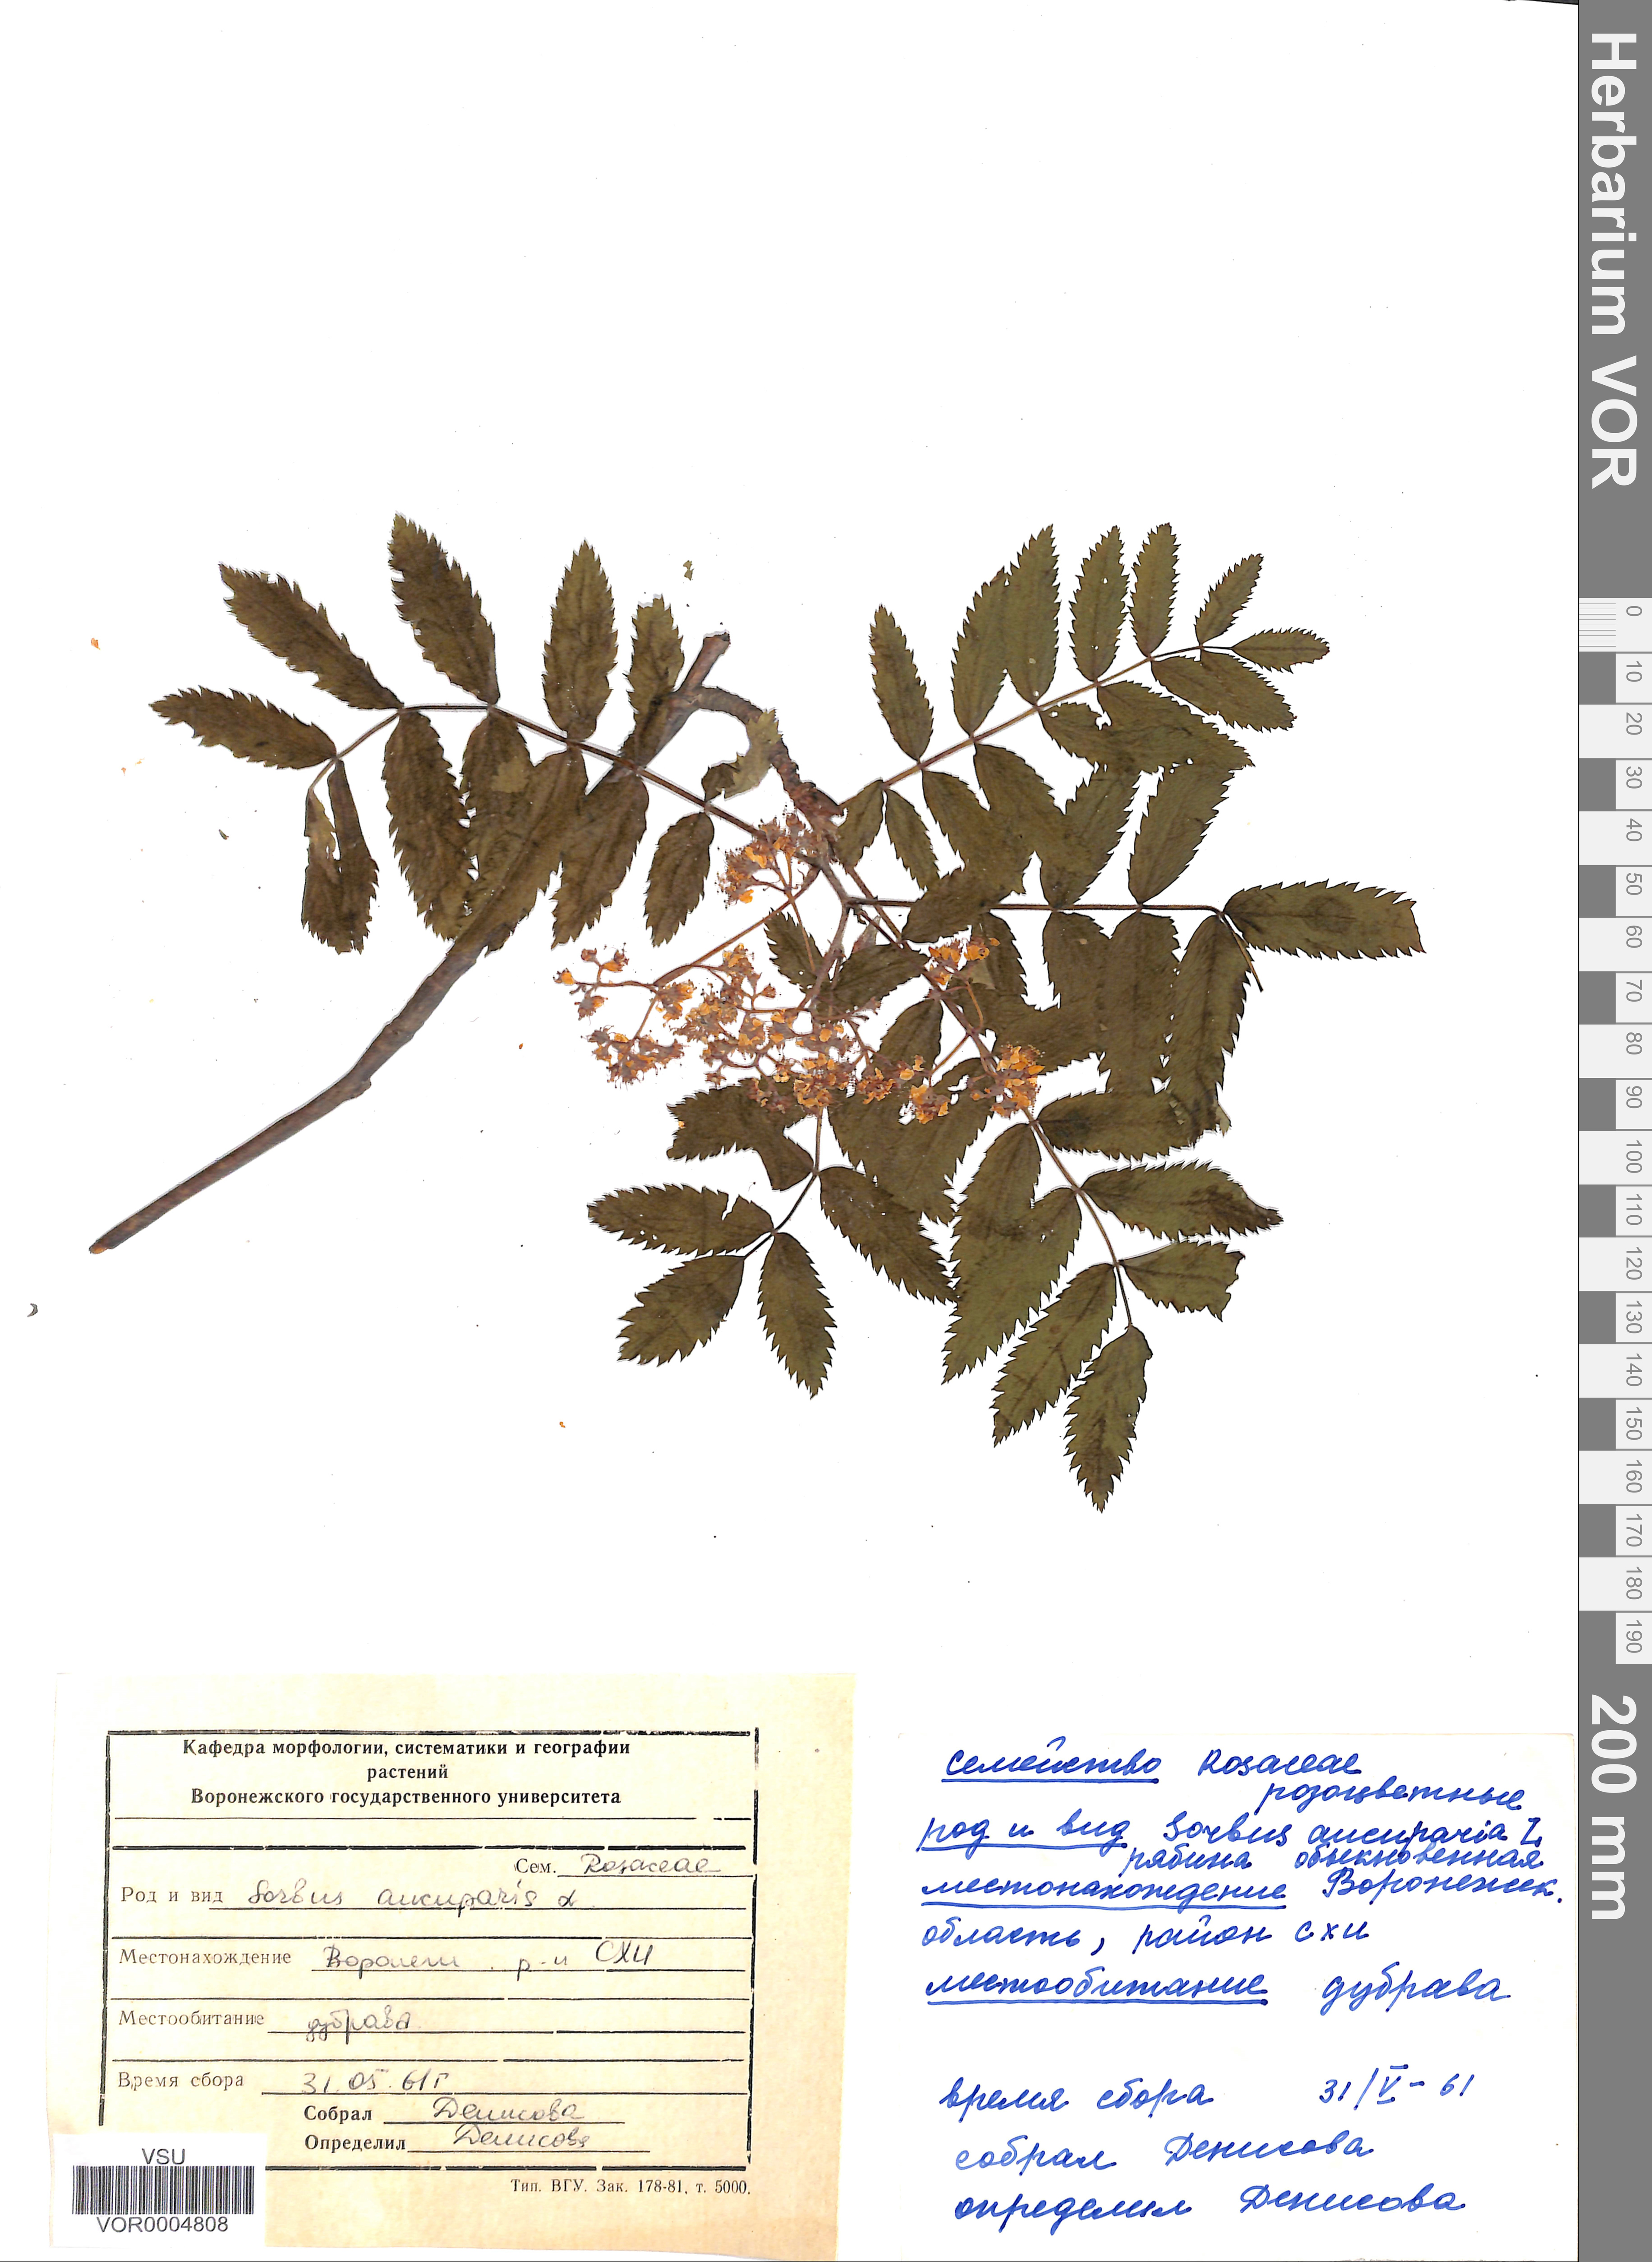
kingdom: Plantae
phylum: Tracheophyta
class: Magnoliopsida
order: Rosales
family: Rosaceae
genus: Sorbus
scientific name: Sorbus aucuparia
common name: Rowan
